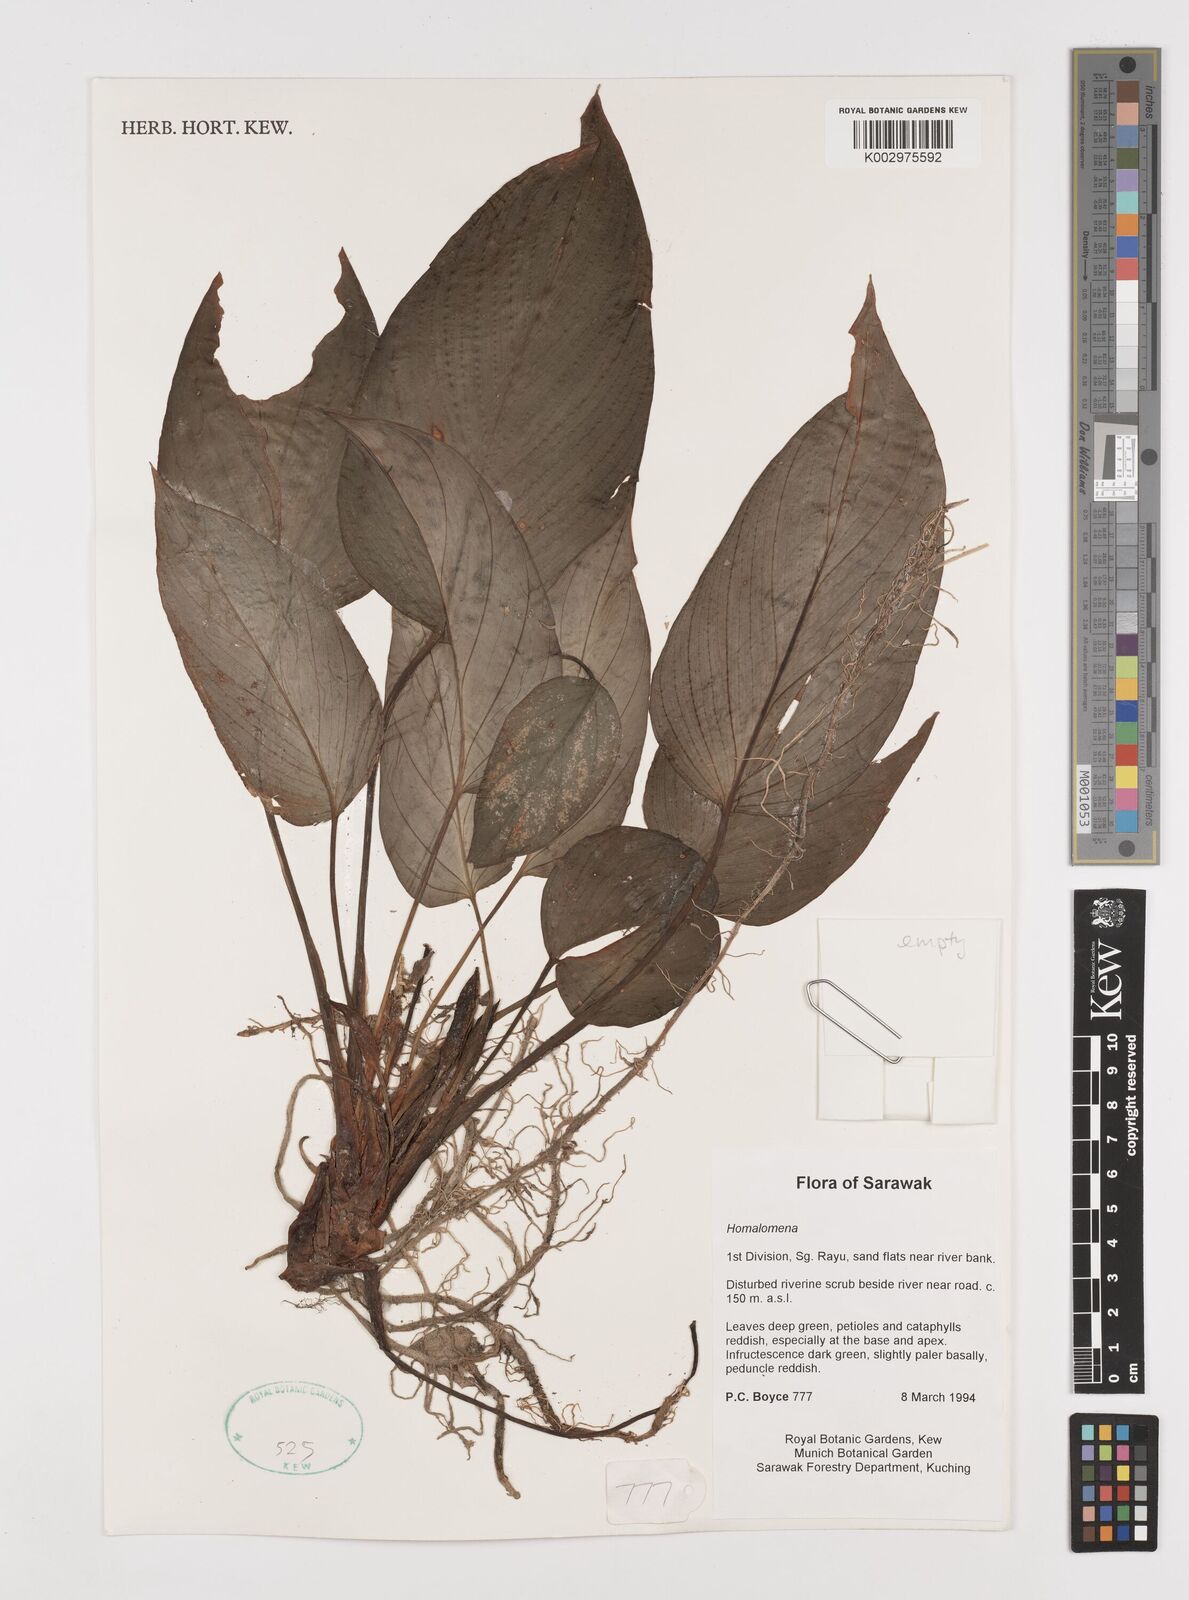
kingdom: Plantae
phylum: Tracheophyta
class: Liliopsida
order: Alismatales
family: Araceae
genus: Homalomena
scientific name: Homalomena
